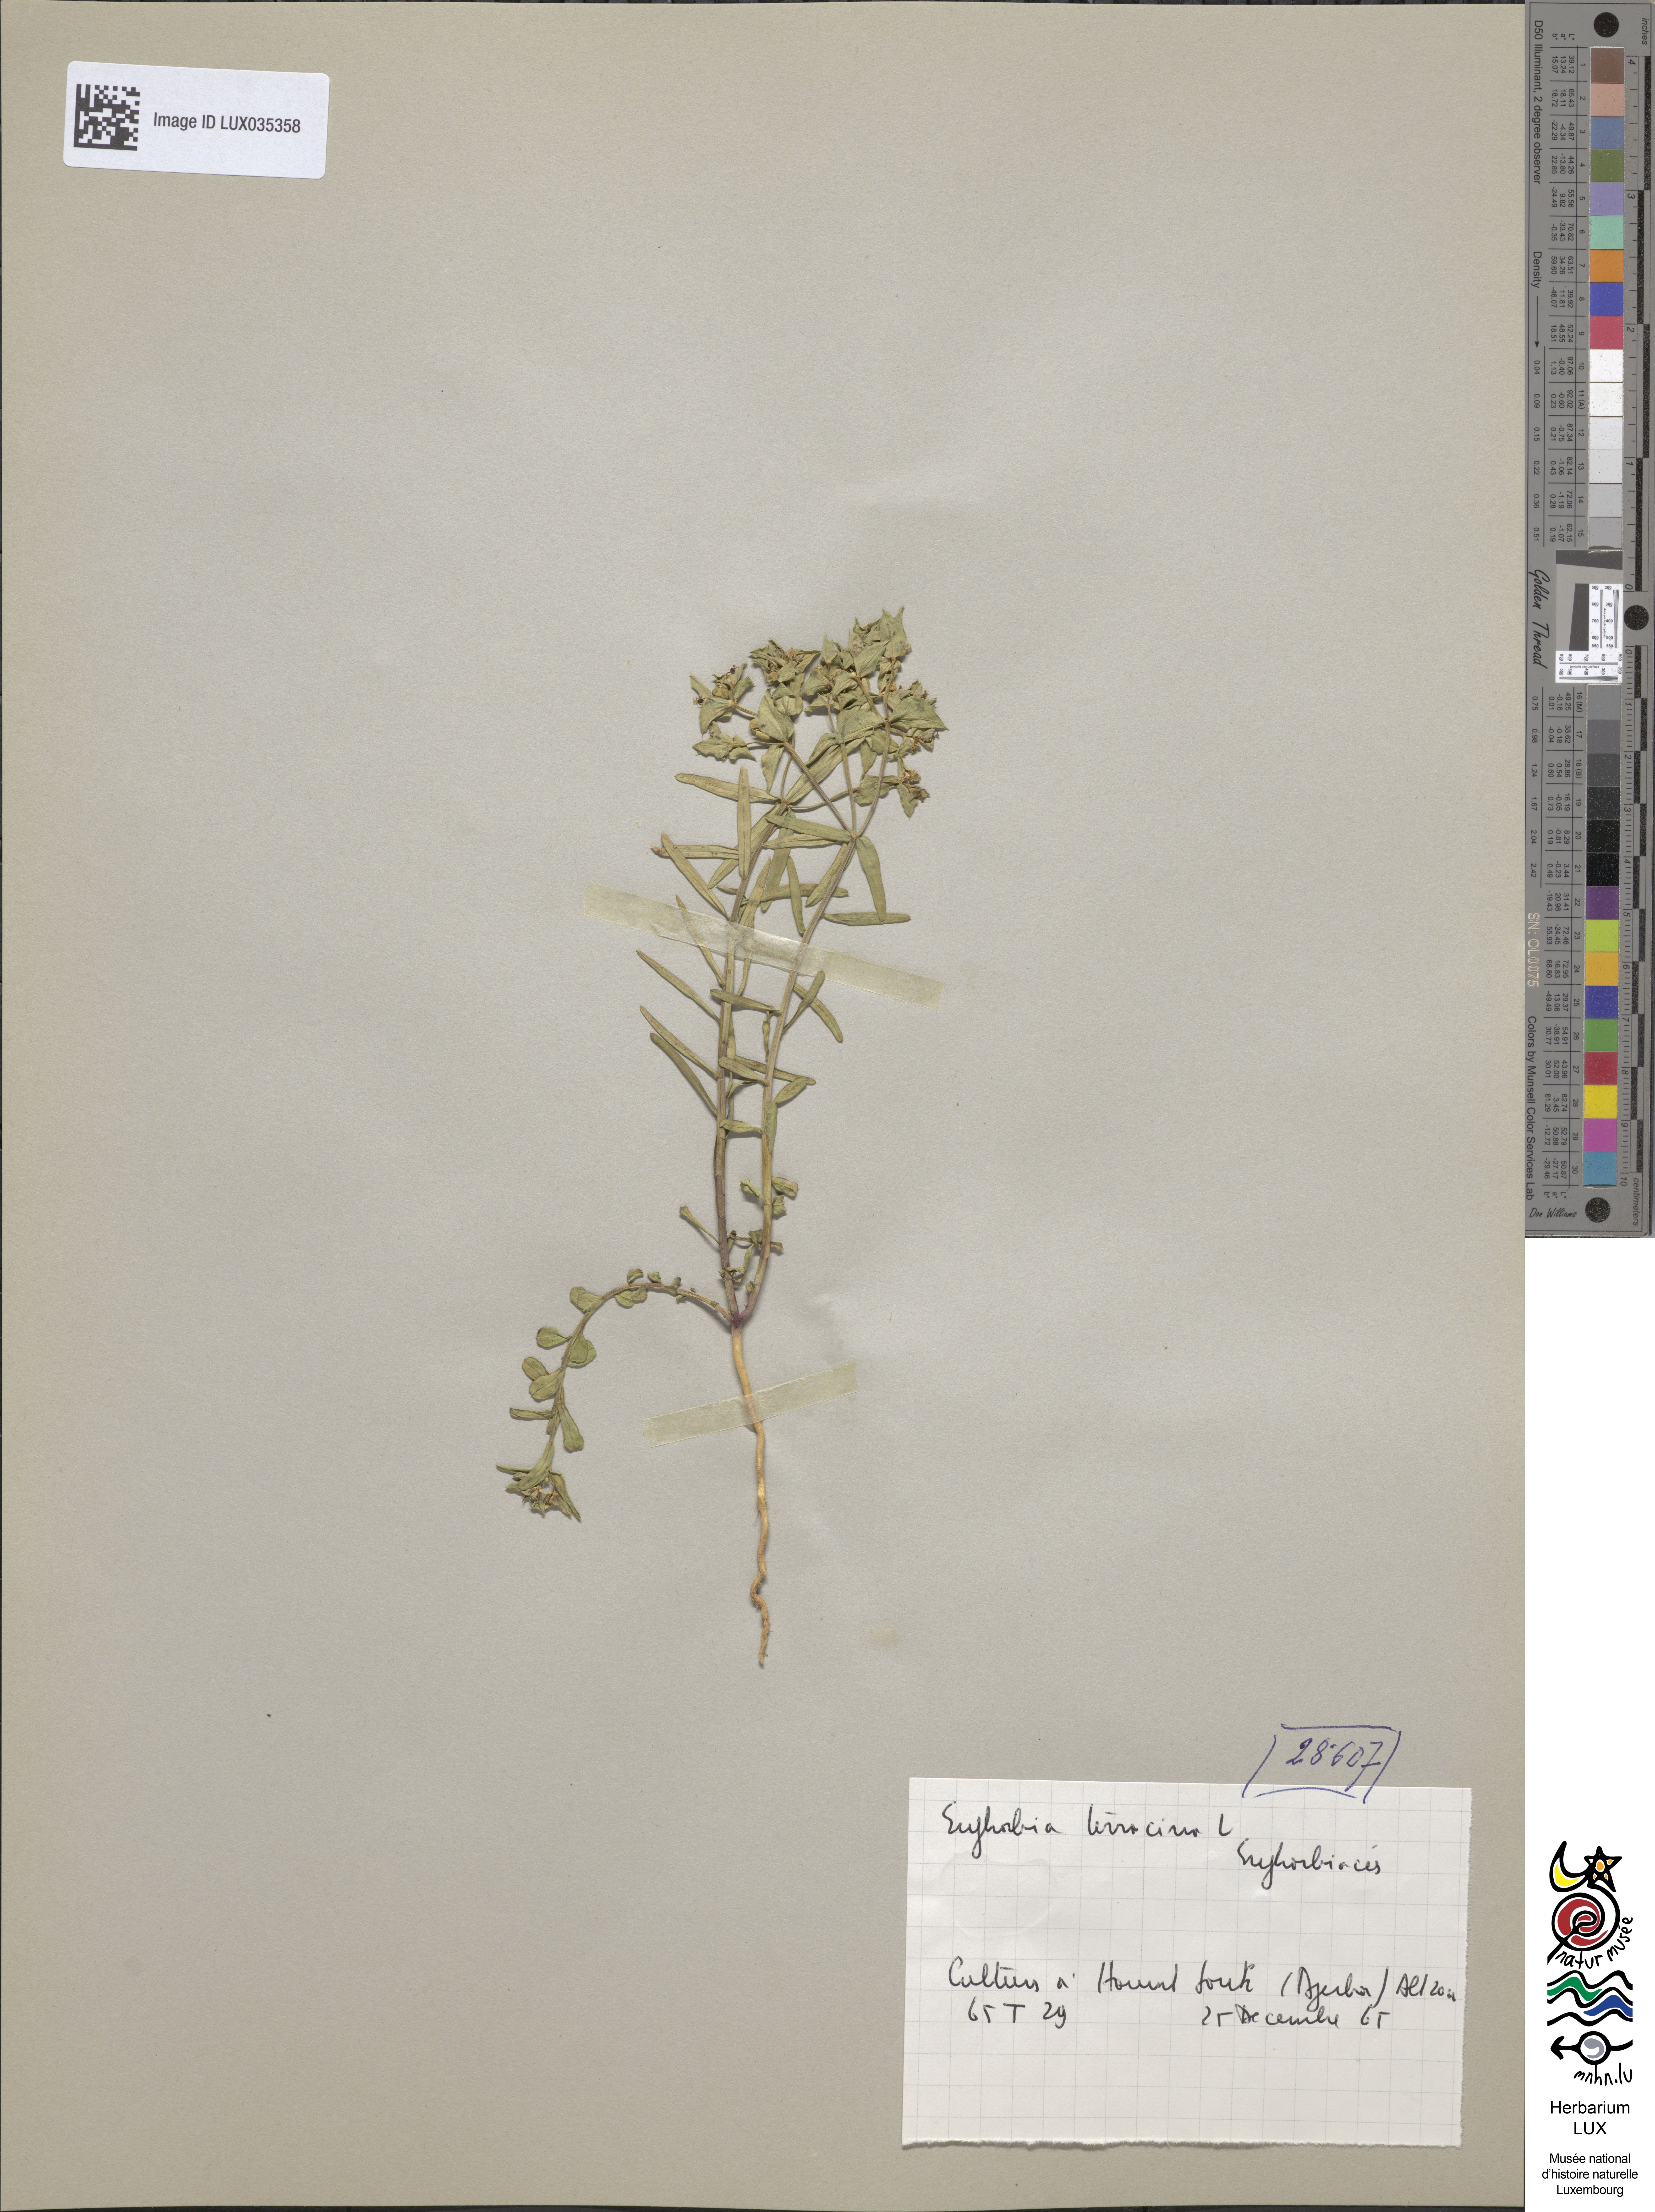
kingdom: Plantae
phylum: Tracheophyta
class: Magnoliopsida
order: Malpighiales
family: Euphorbiaceae
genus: Euphorbia
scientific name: Euphorbia terracina
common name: Geraldton carnation weed
